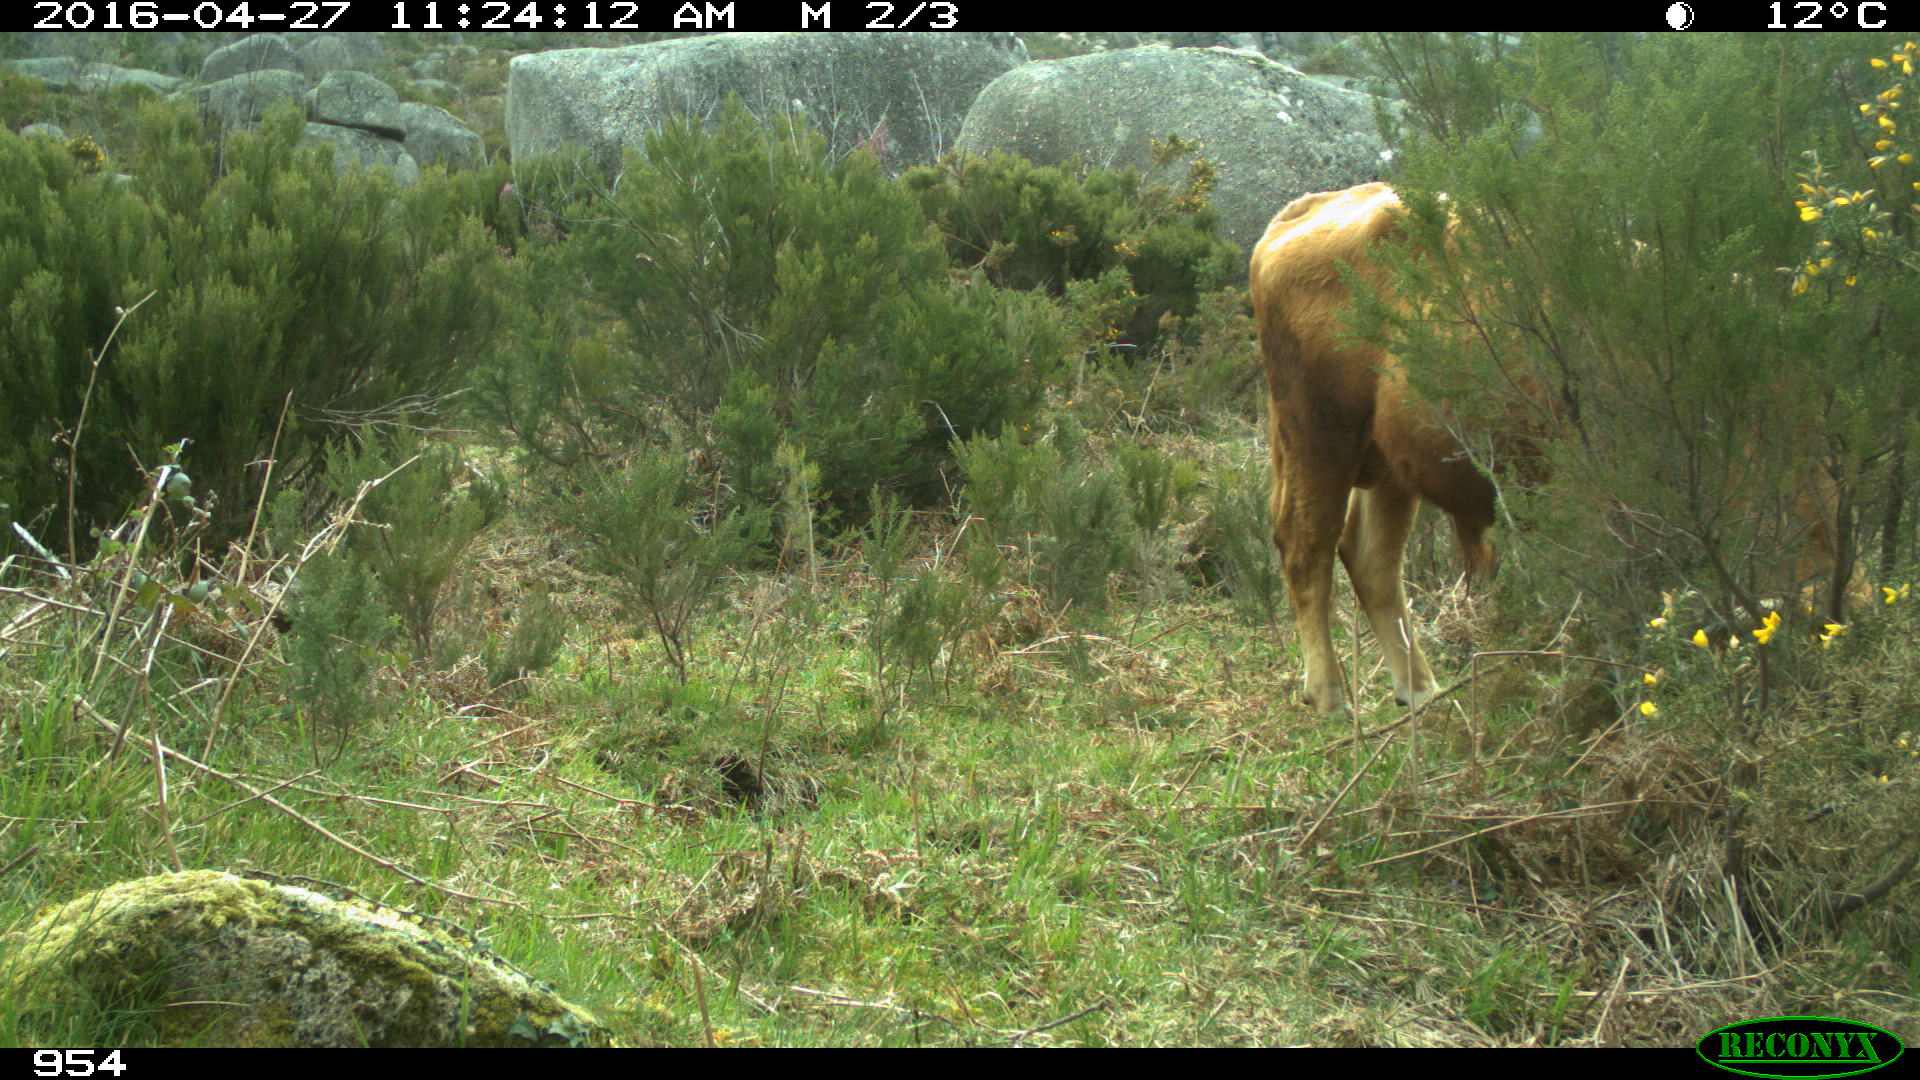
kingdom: Animalia
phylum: Chordata
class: Mammalia
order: Artiodactyla
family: Bovidae
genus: Bos
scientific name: Bos taurus
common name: Domesticated cattle
